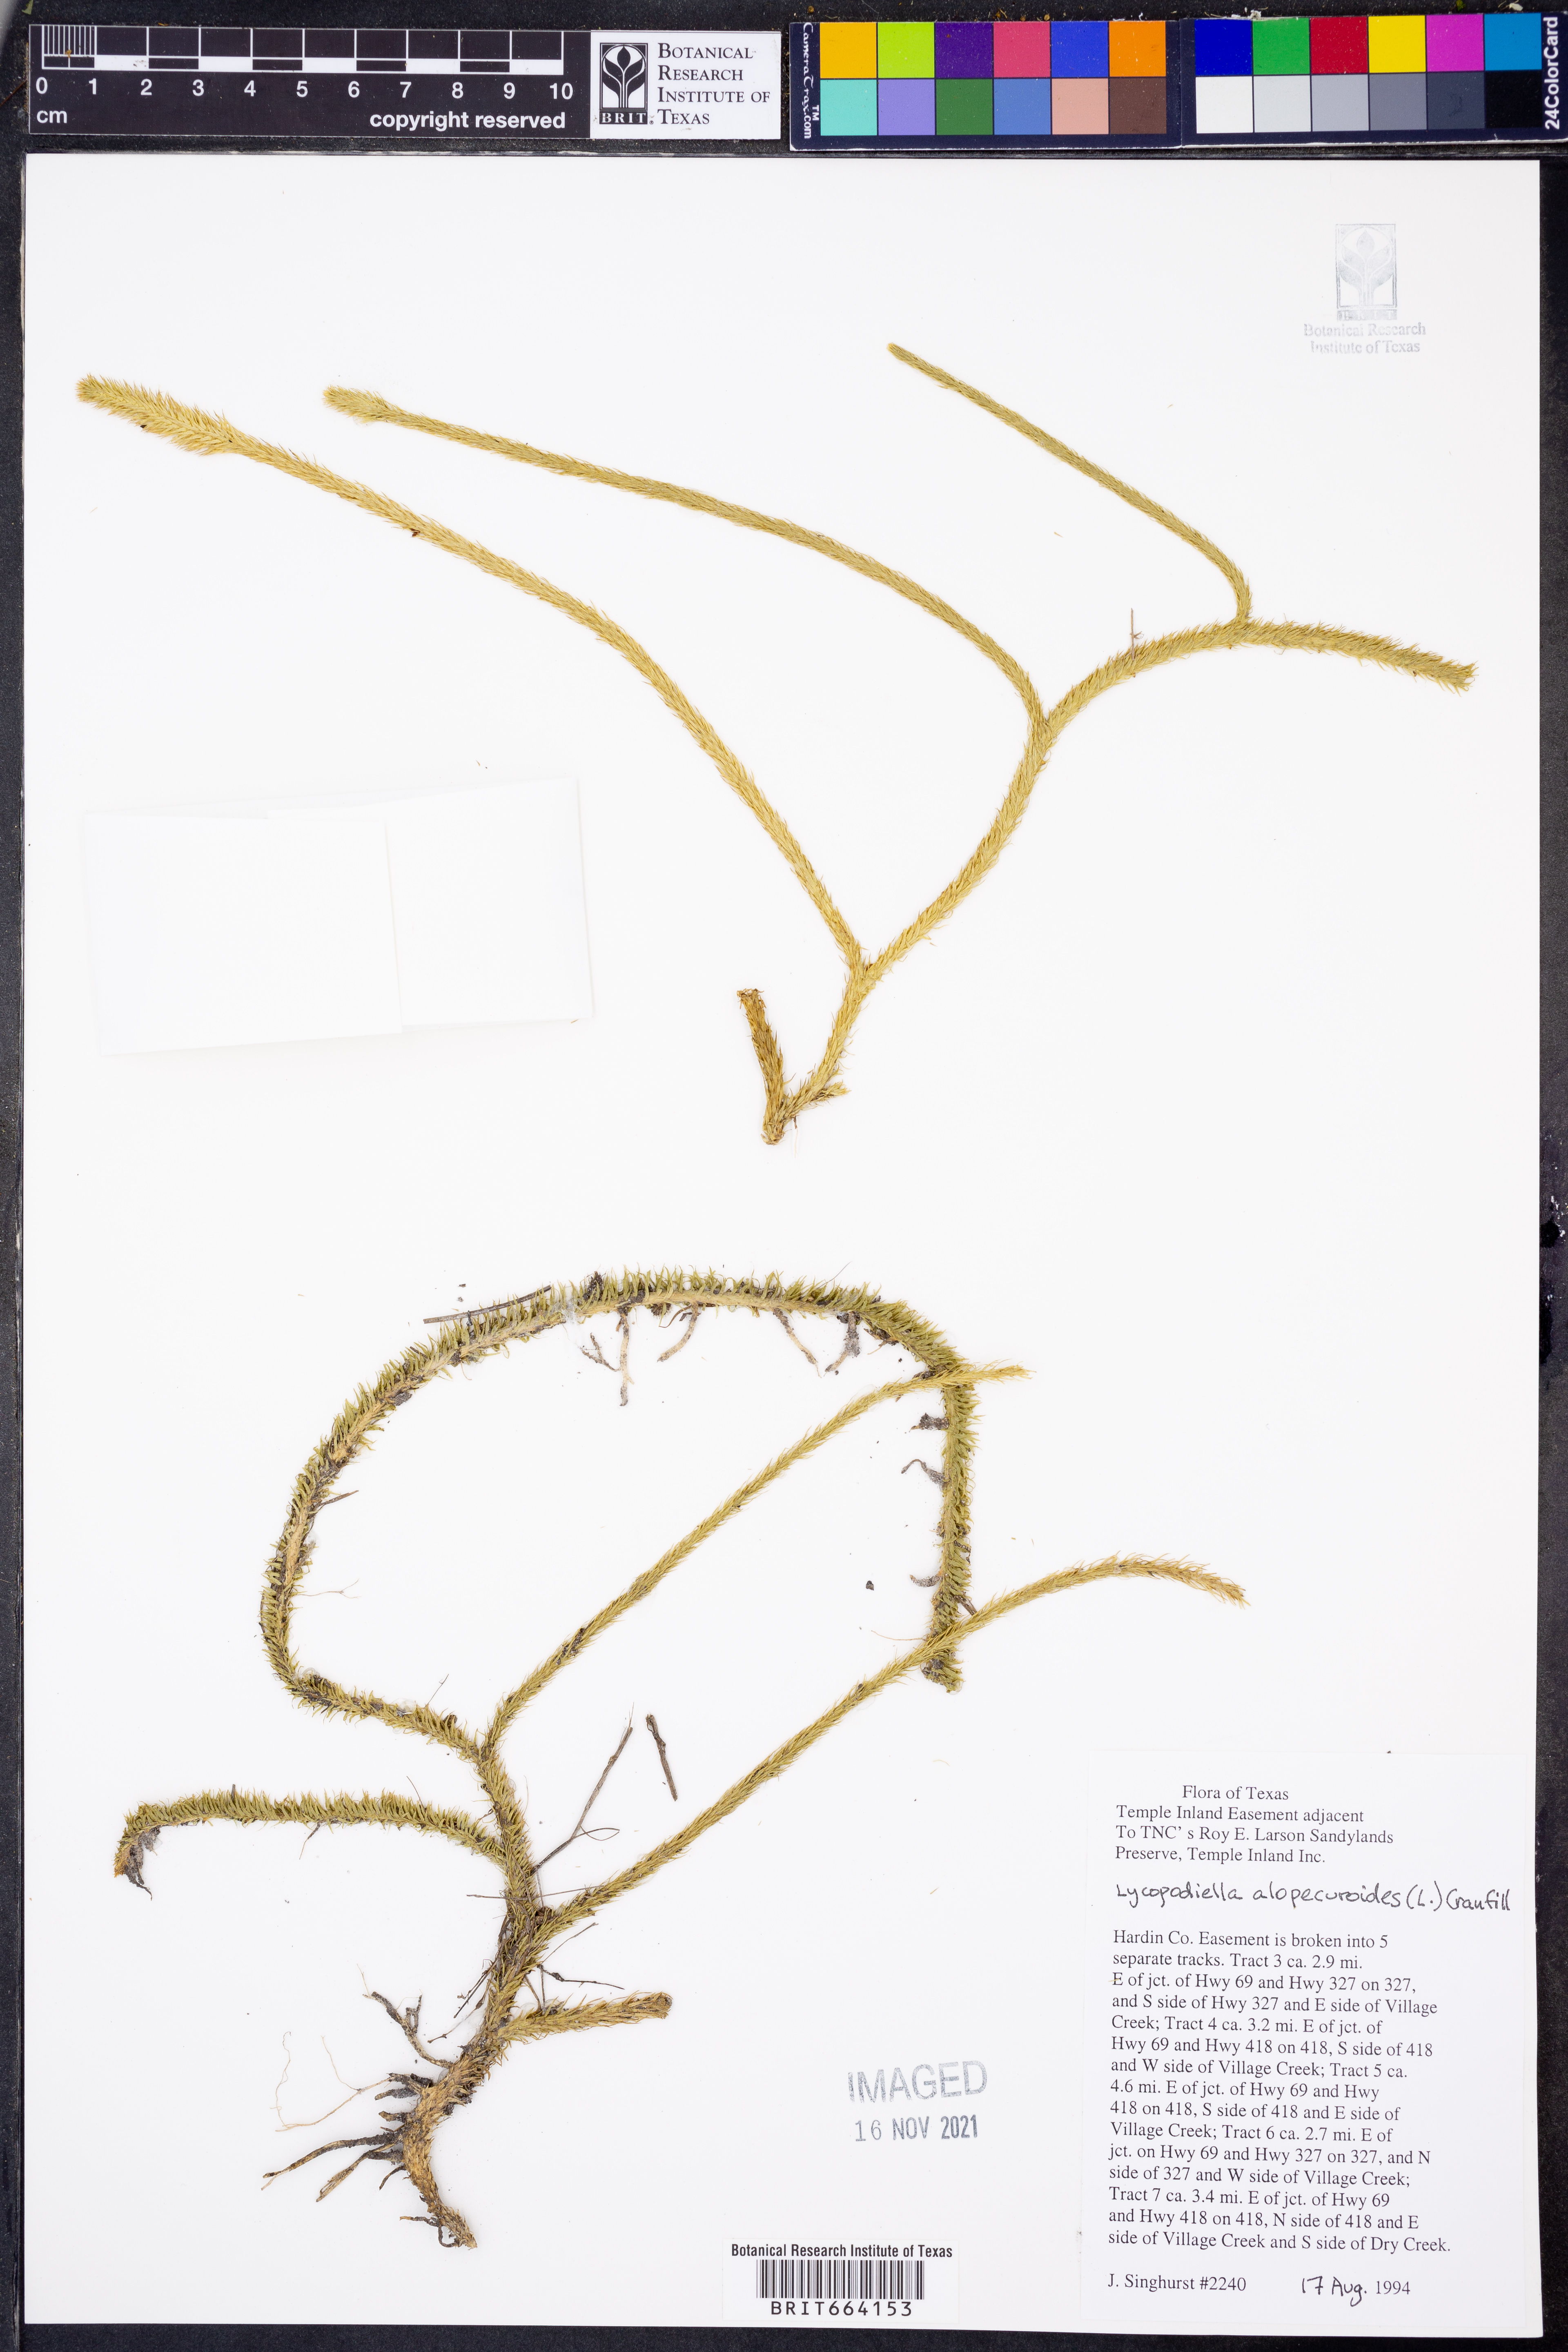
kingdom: Plantae
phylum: Tracheophyta
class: Lycopodiopsida
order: Lycopodiales
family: Lycopodiaceae
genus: Lycopodiella
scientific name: Lycopodiella alopecuroides
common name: Foxtail clubmoss
